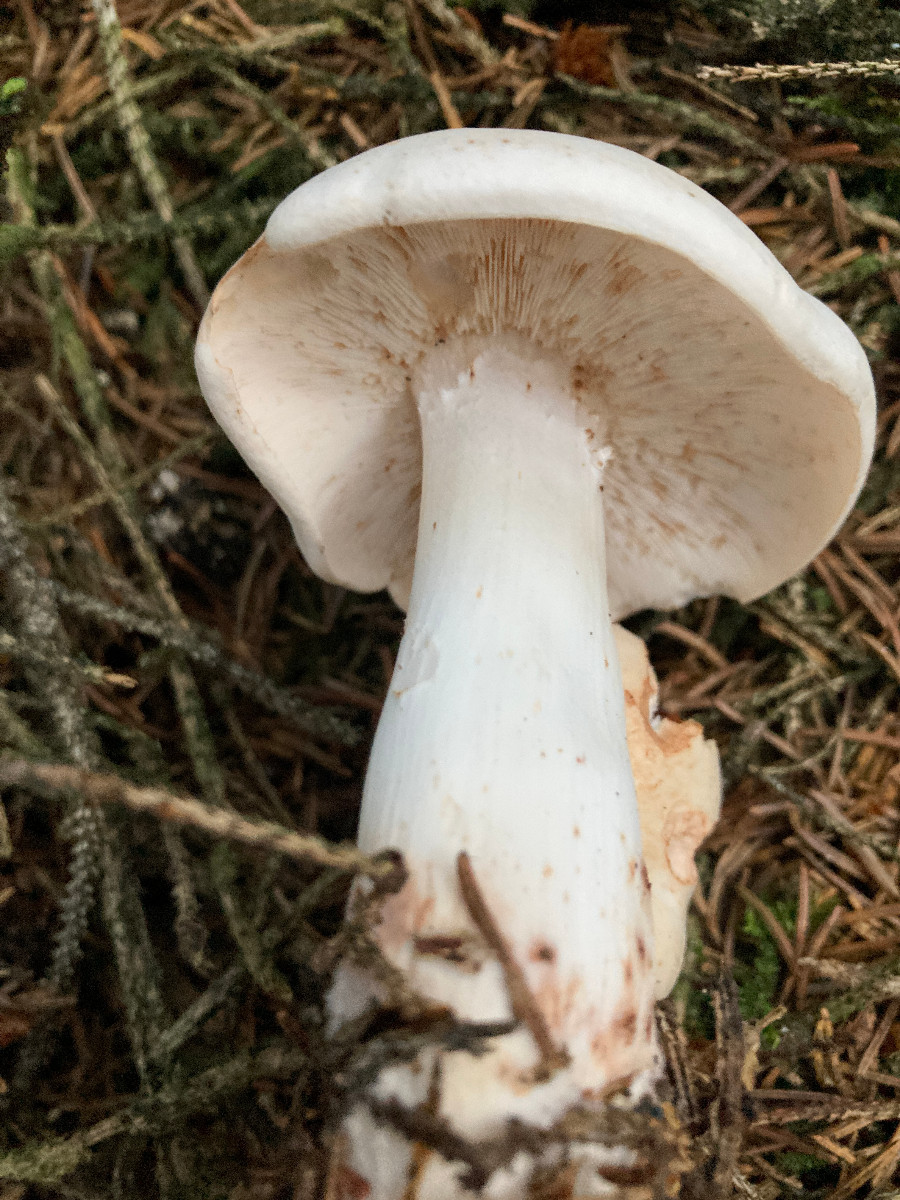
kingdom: Fungi
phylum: Basidiomycota
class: Agaricomycetes
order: Agaricales
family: Omphalotaceae
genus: Rhodocollybia
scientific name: Rhodocollybia maculata
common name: plettet fladhat
